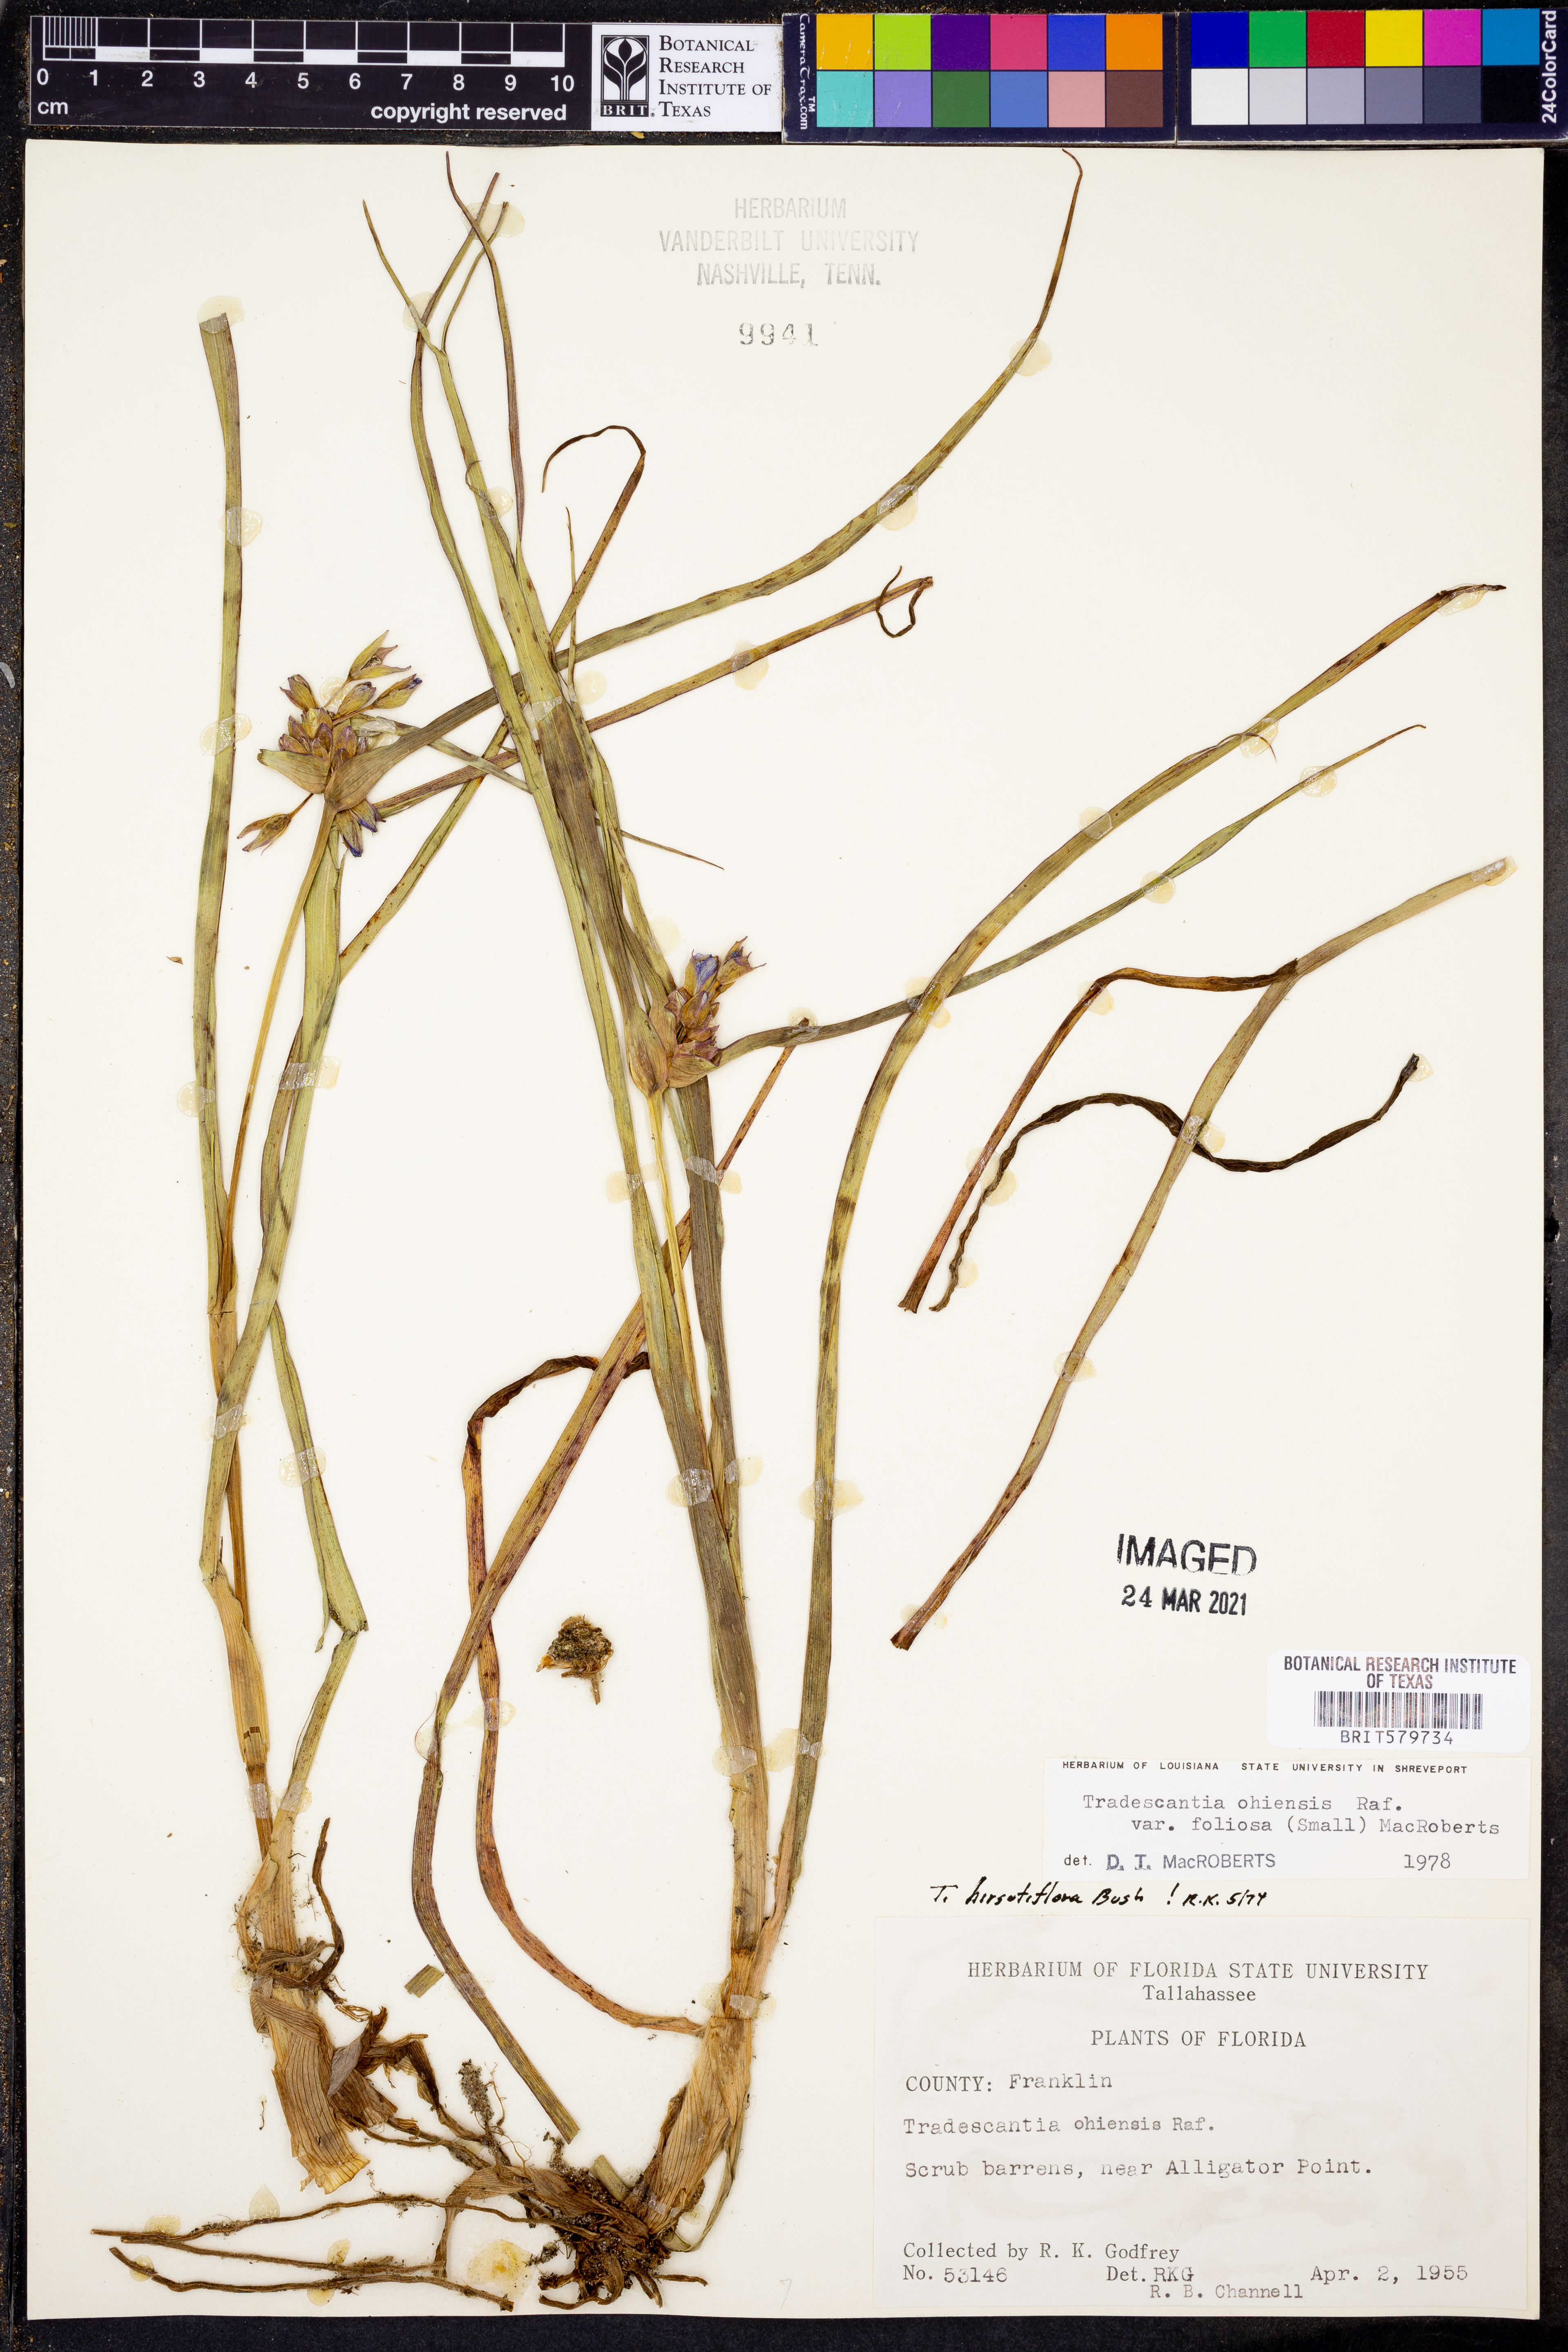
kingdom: Plantae
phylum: Tracheophyta
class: Liliopsida
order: Commelinales
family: Commelinaceae
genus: Tradescantia
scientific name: Tradescantia ohiensis
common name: Ohio spiderwort
